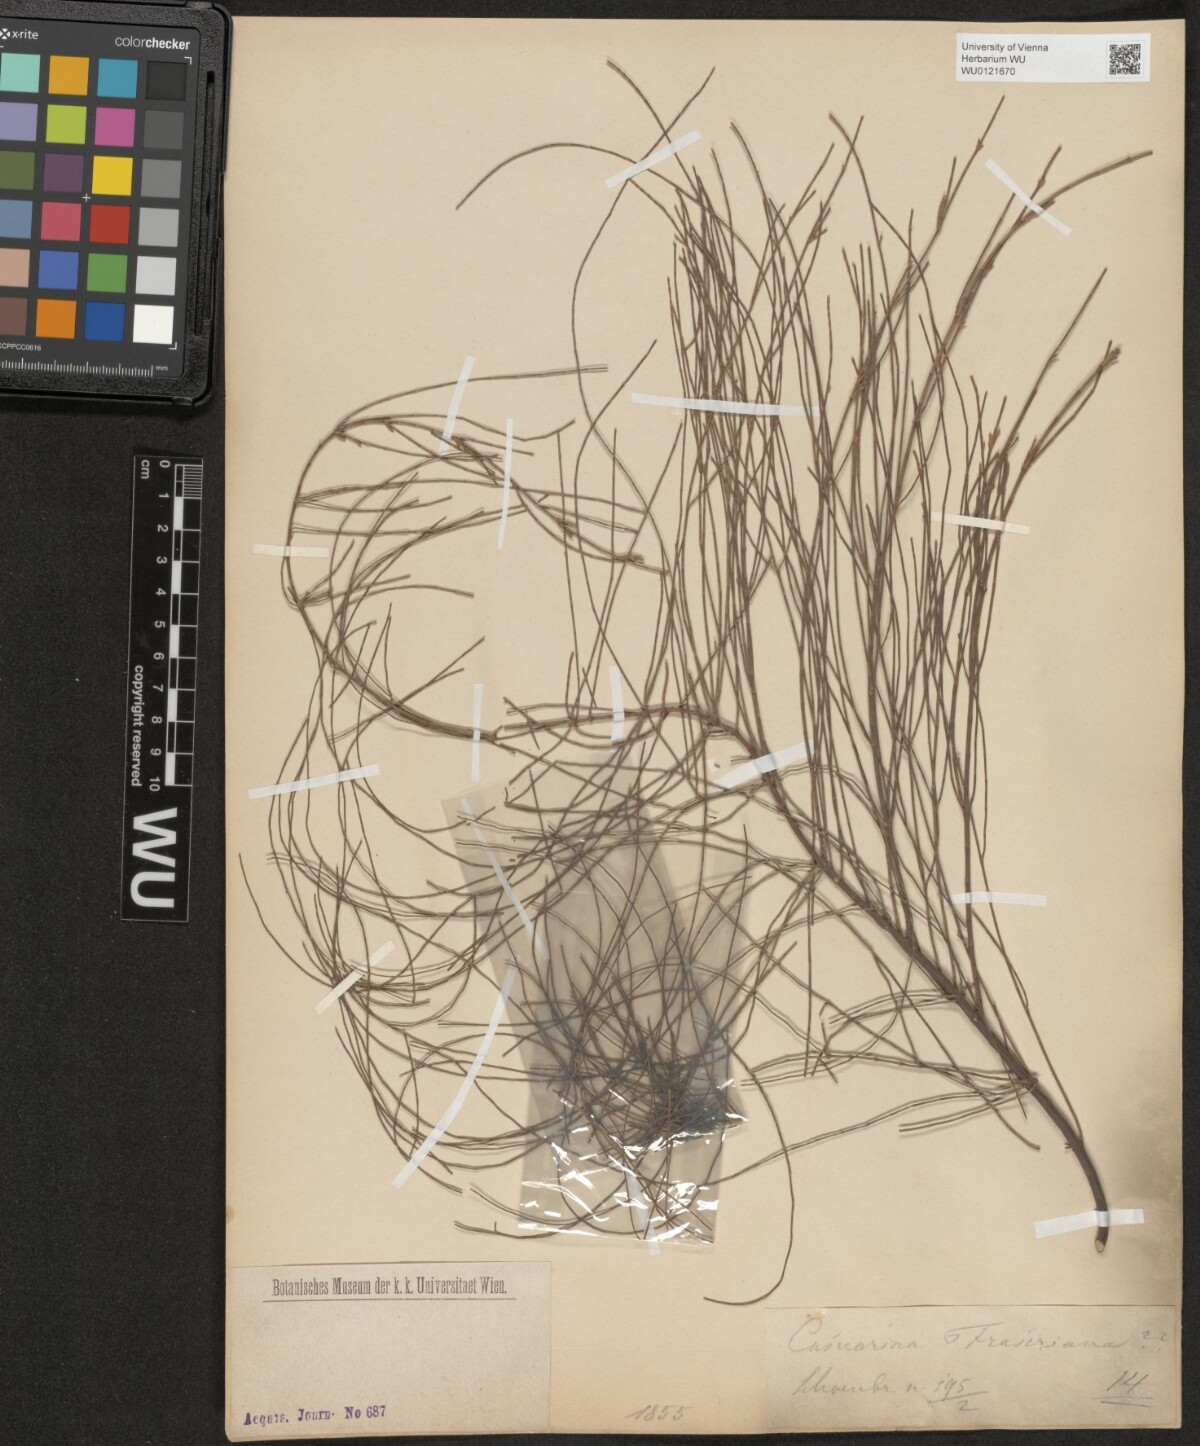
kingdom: Plantae
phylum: Tracheophyta
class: Magnoliopsida
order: Fagales
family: Casuarinaceae
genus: Allocasuarina
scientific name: Allocasuarina humilis
